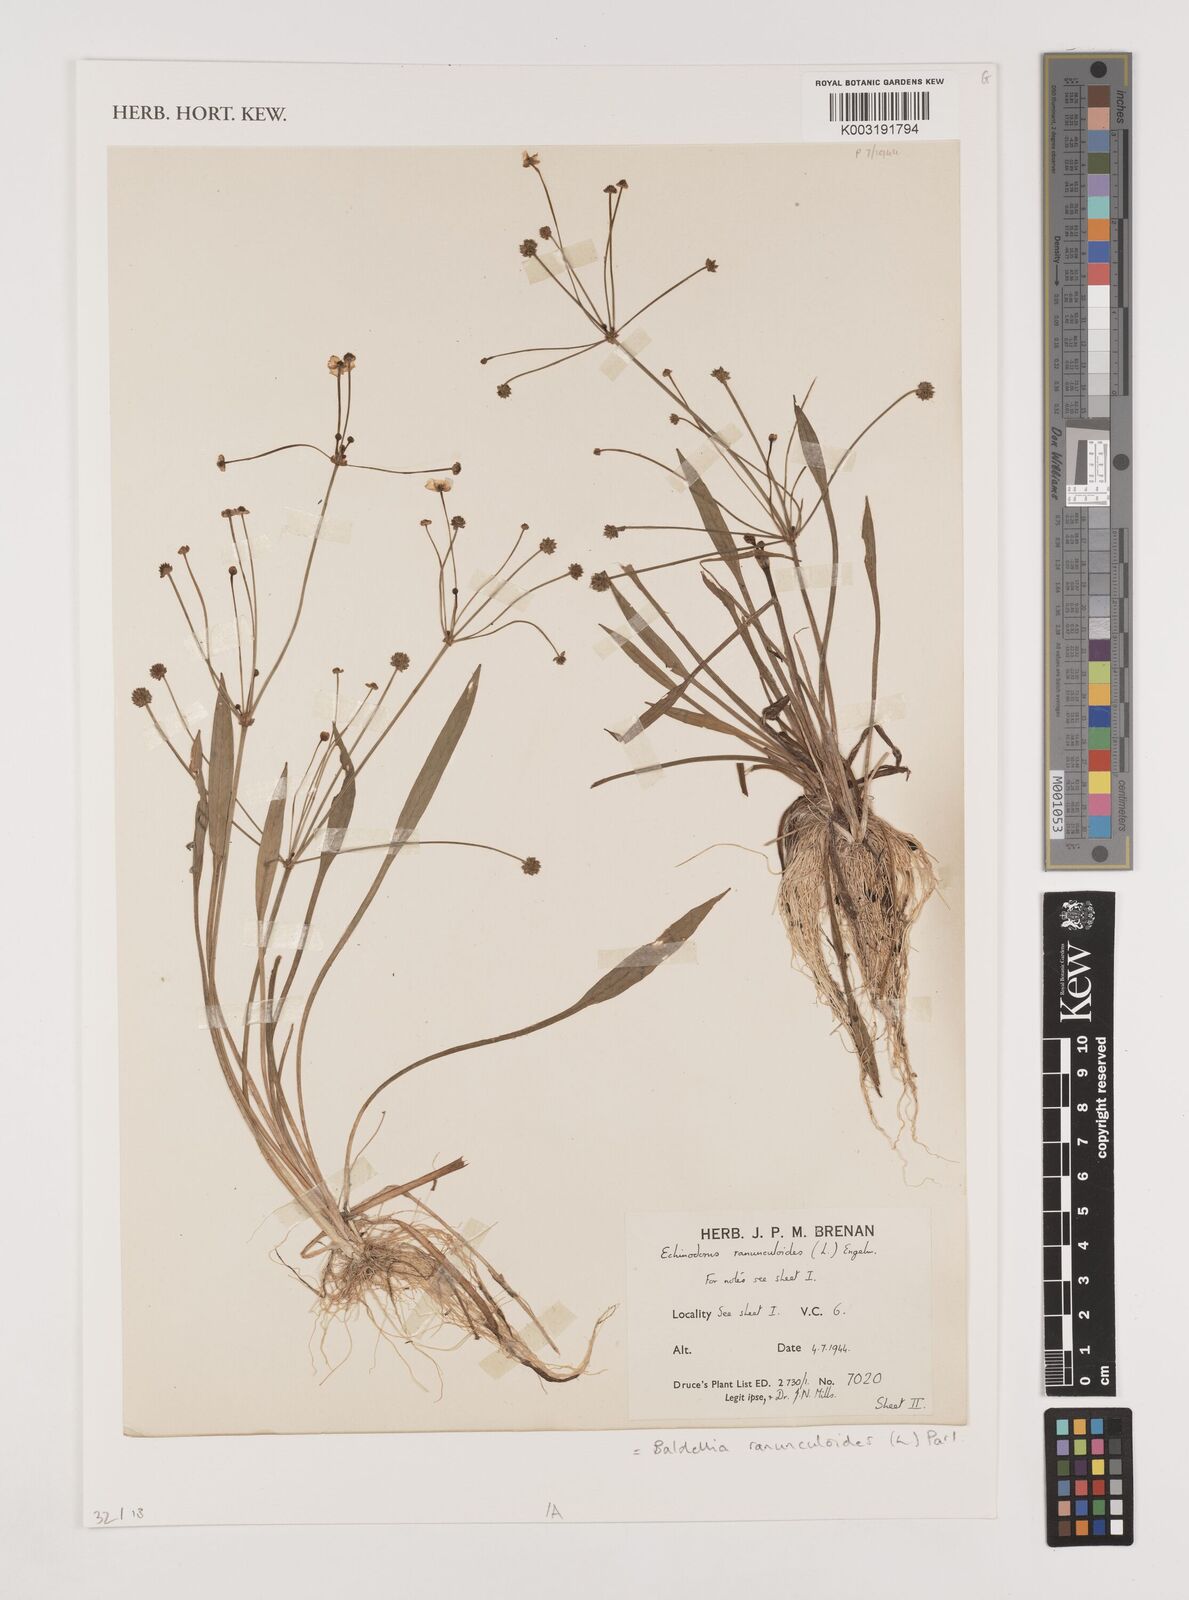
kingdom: Plantae
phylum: Tracheophyta
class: Liliopsida
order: Alismatales
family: Alismataceae
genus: Baldellia
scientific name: Baldellia ranunculoides
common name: Lesser water-plantain
